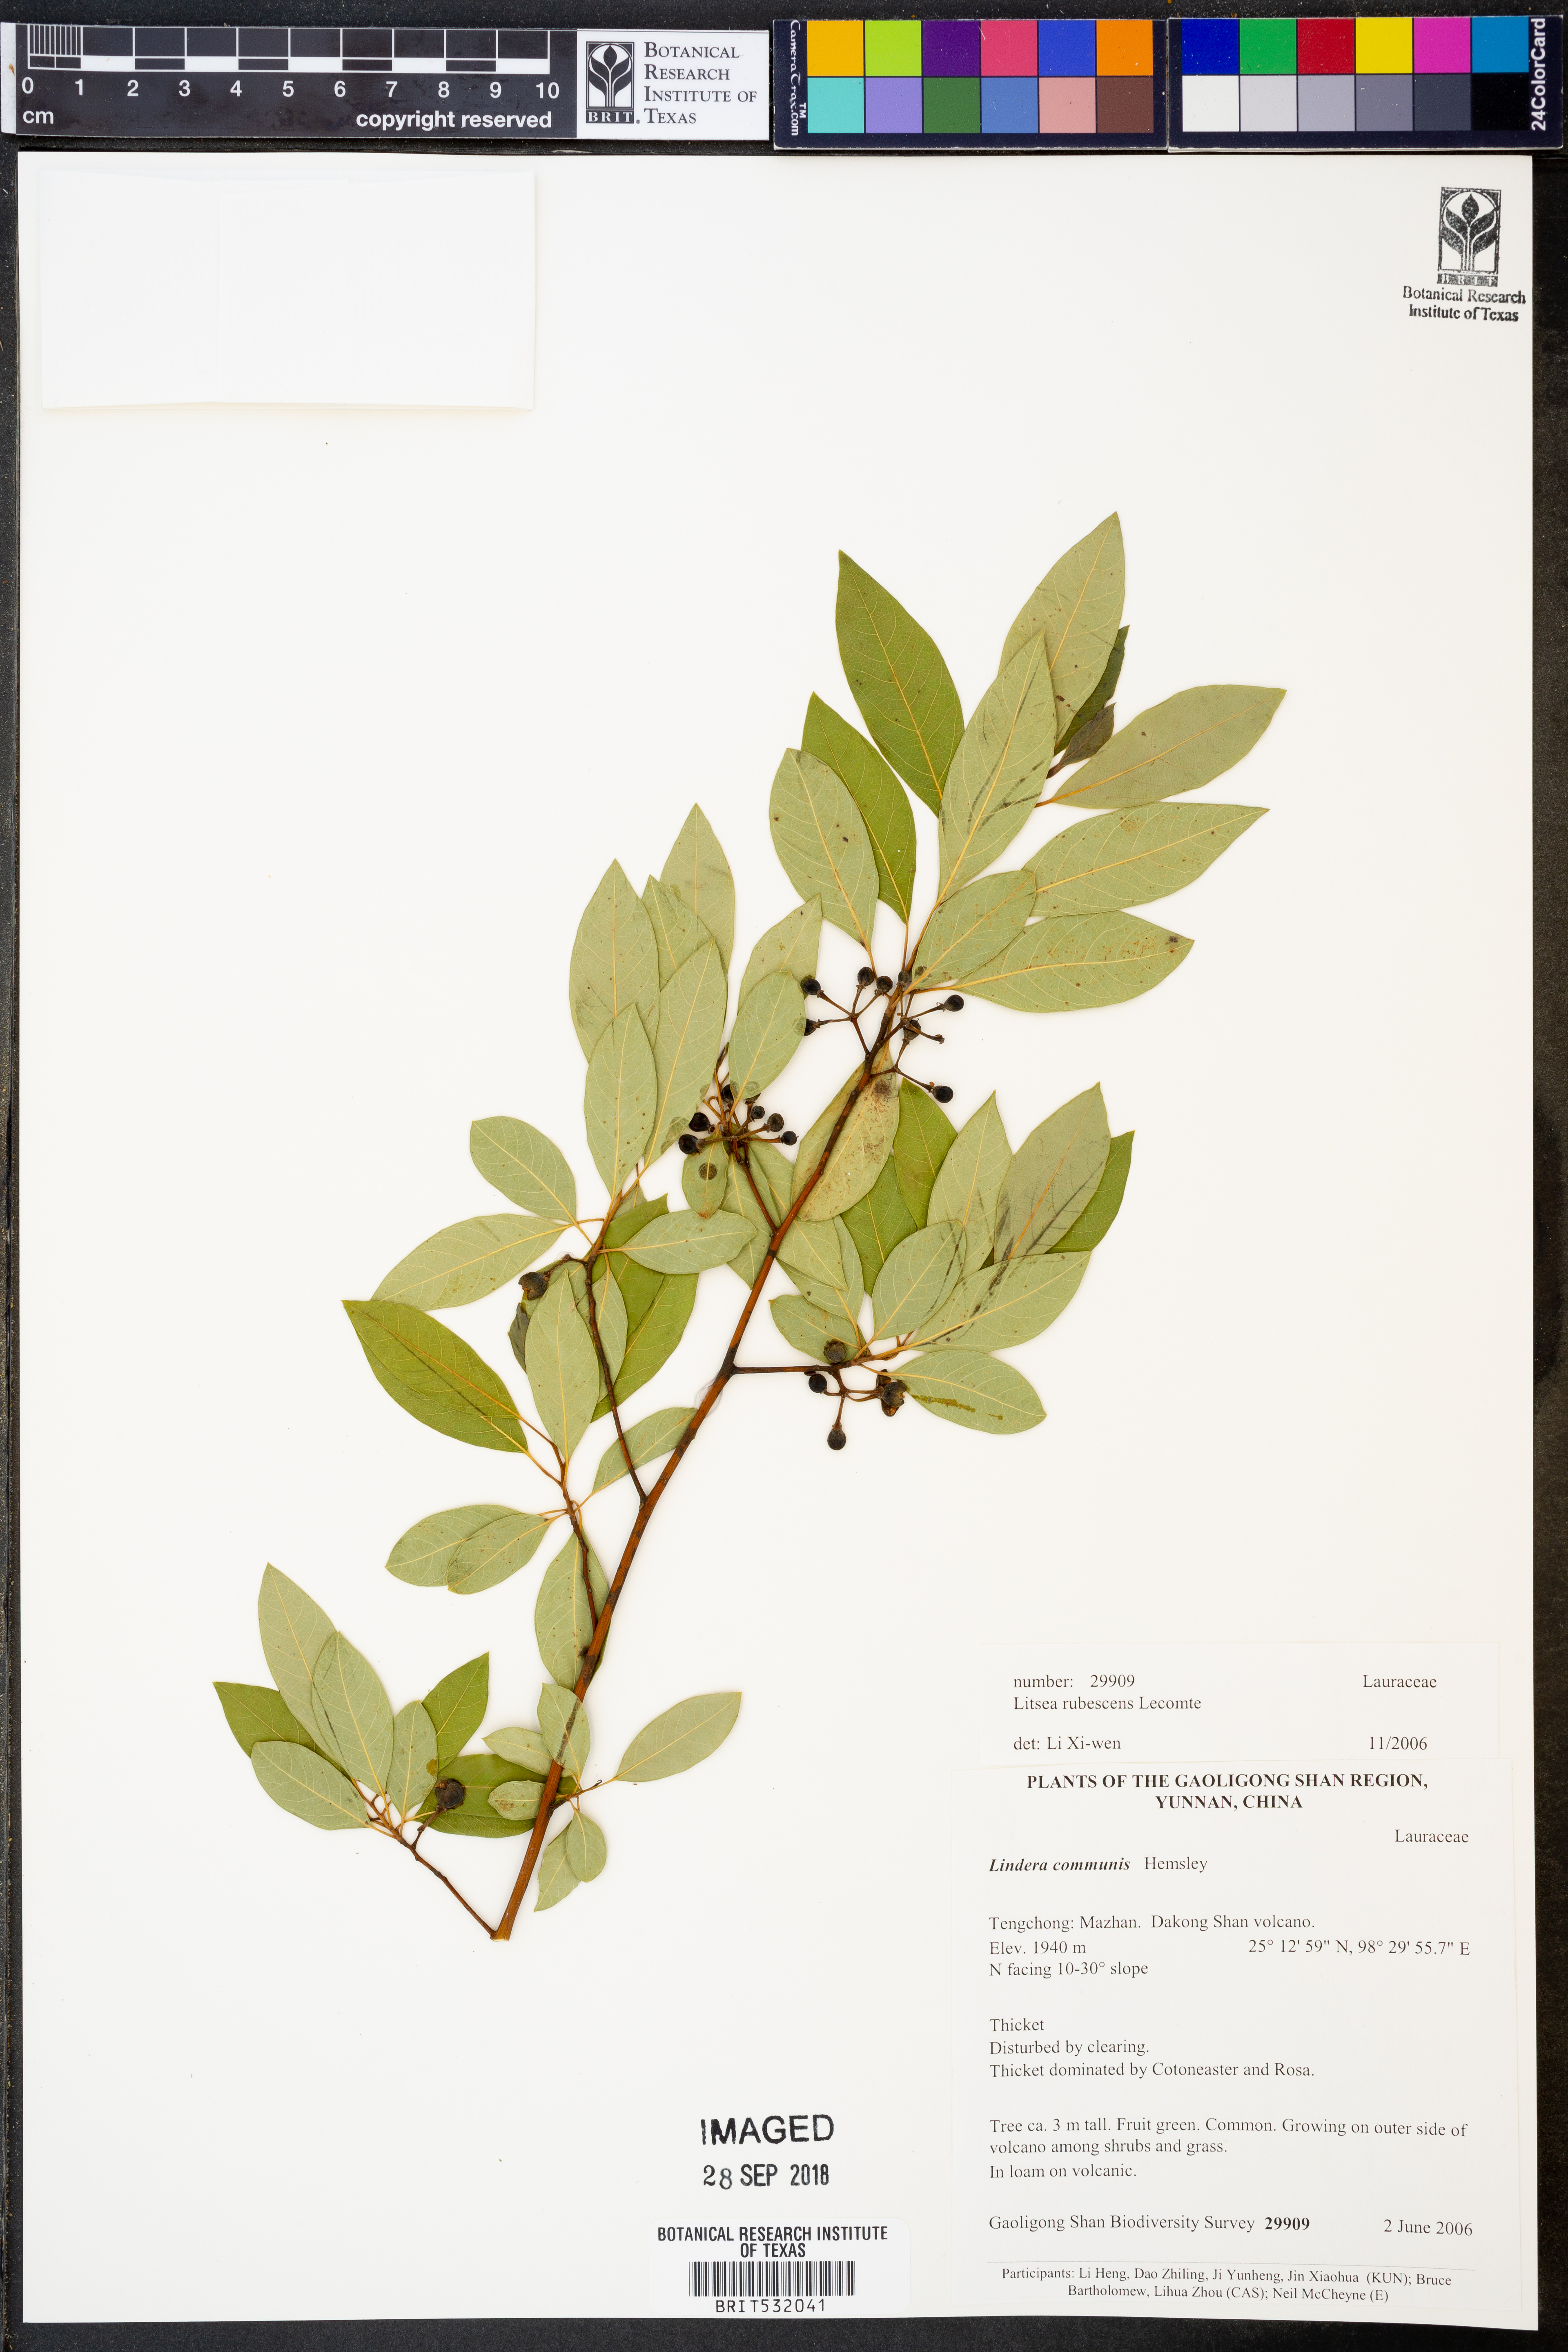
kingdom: Plantae
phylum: Tracheophyta
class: Magnoliopsida
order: Laurales
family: Lauraceae
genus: Litsea
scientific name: Litsea rubescens
